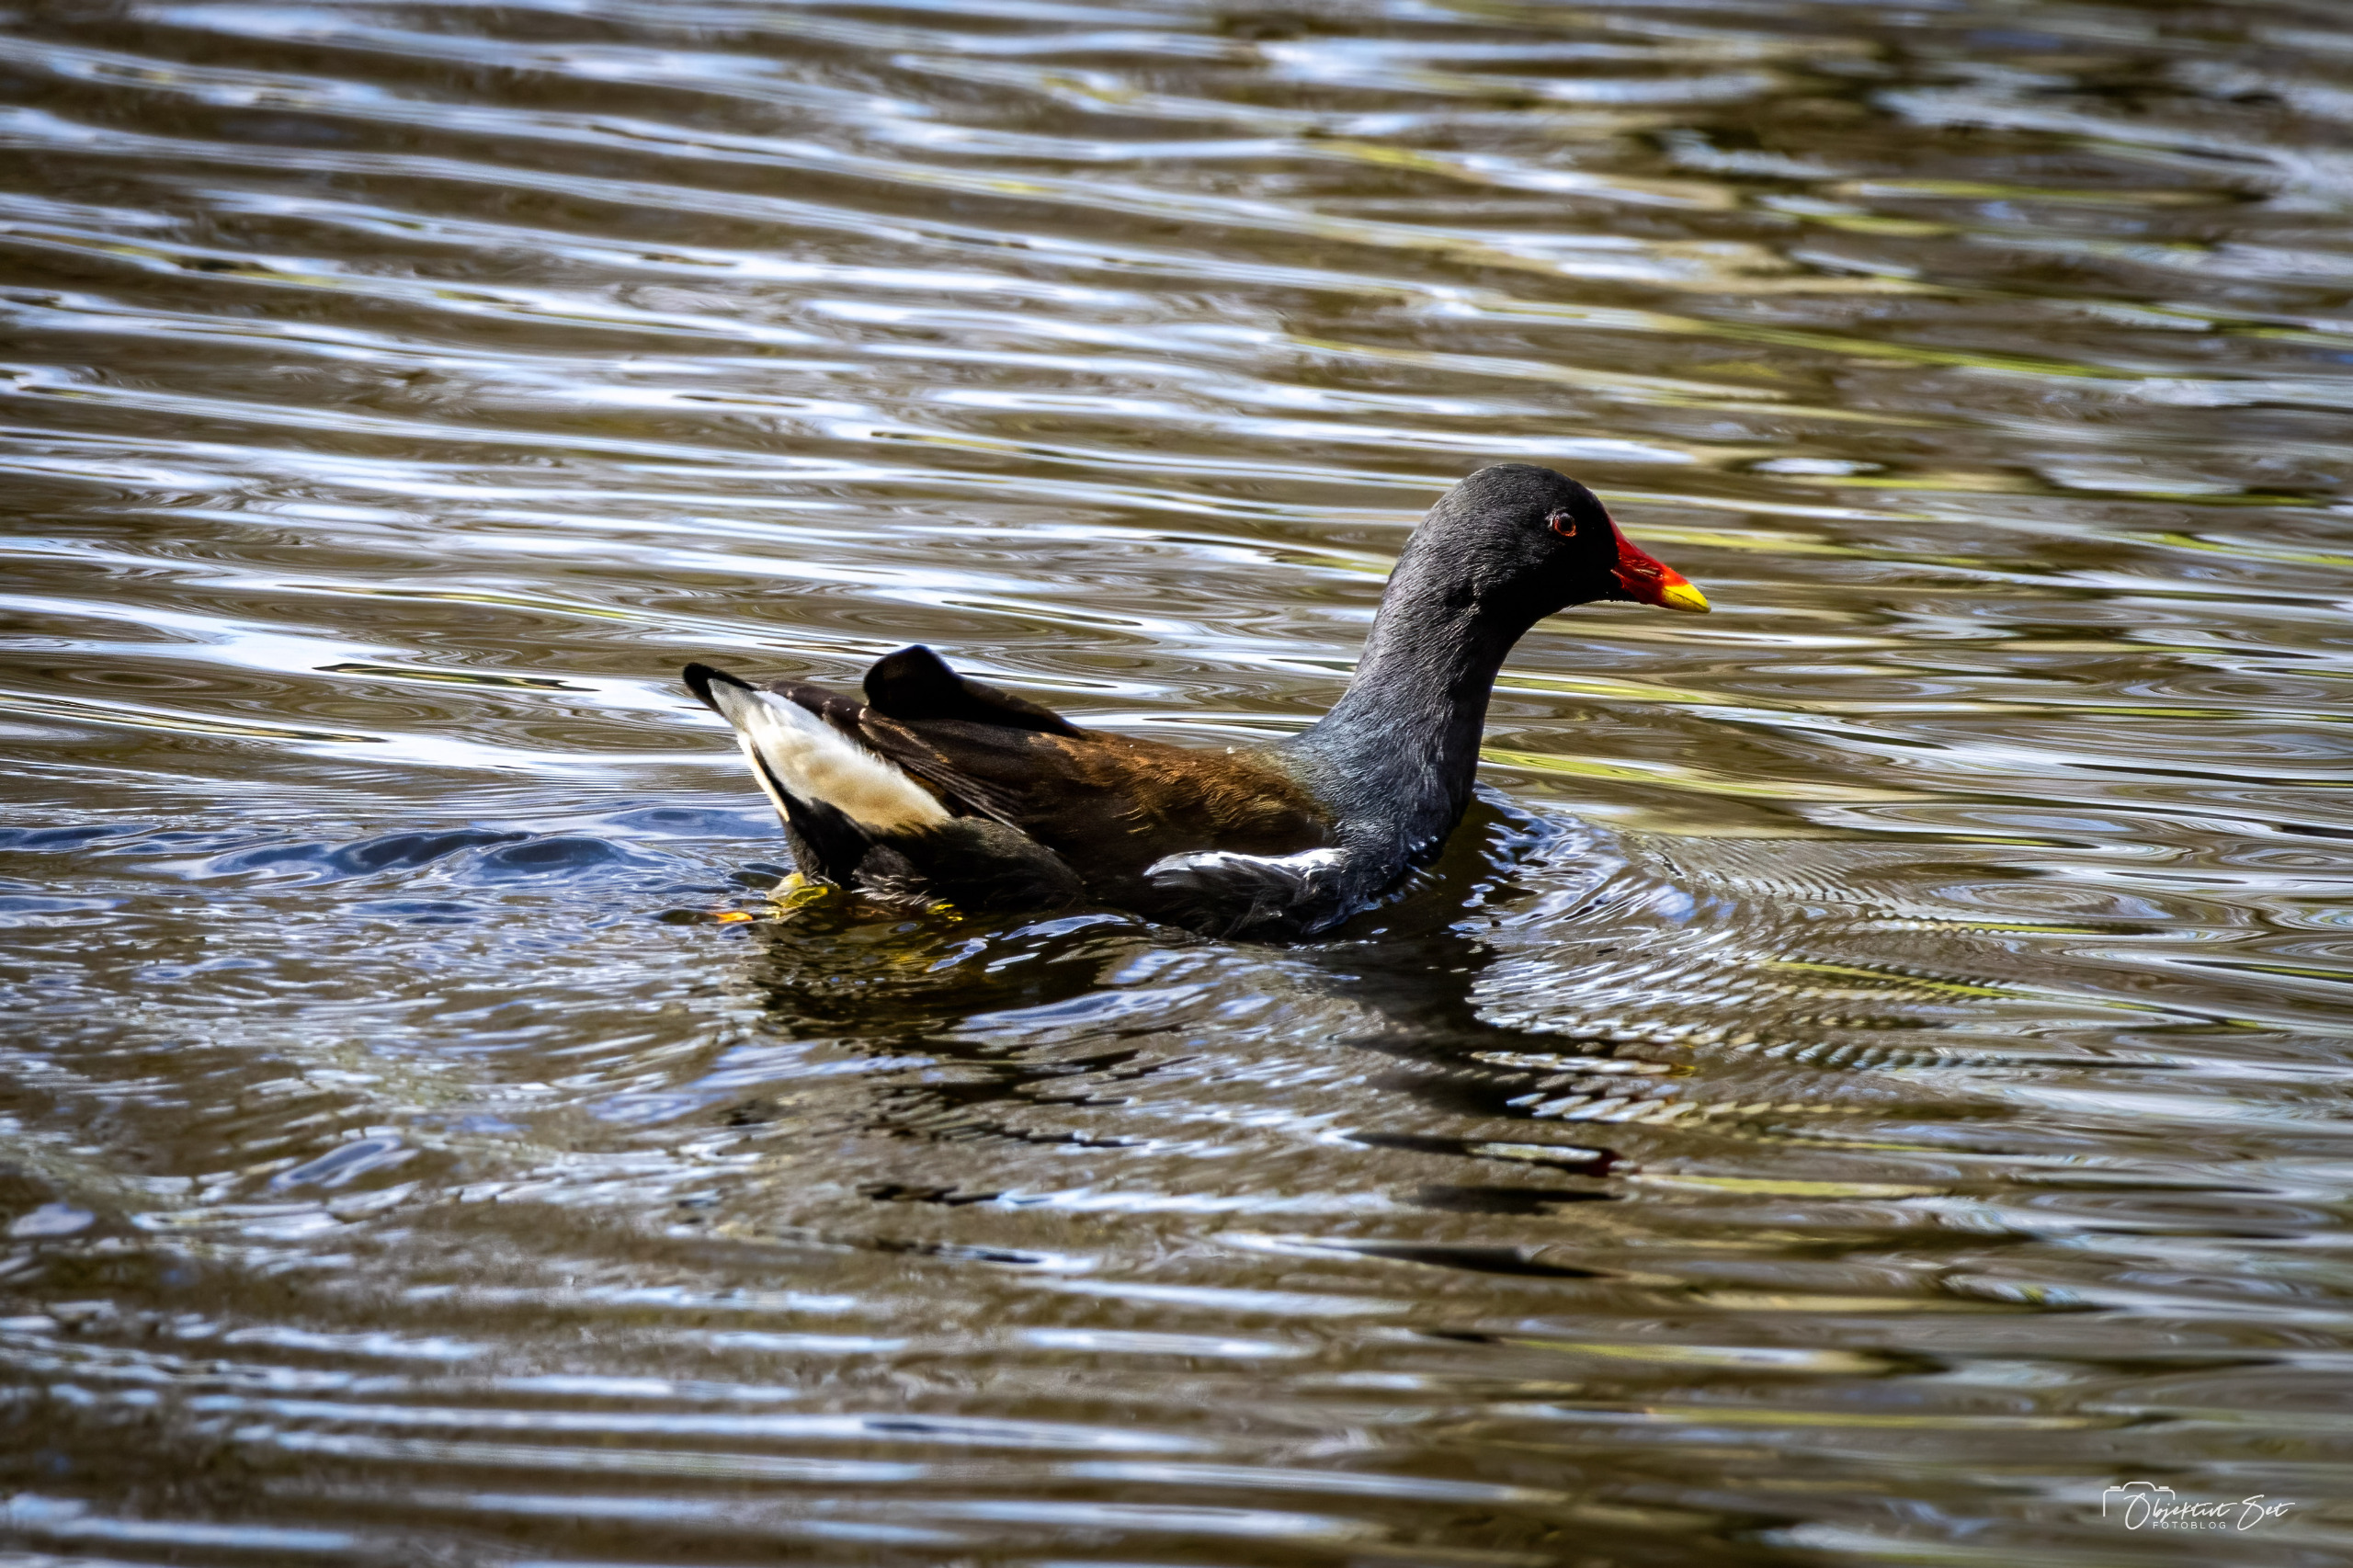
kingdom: Animalia
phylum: Chordata
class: Aves
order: Gruiformes
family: Rallidae
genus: Gallinula
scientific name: Gallinula chloropus
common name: Grønbenet rørhøne
